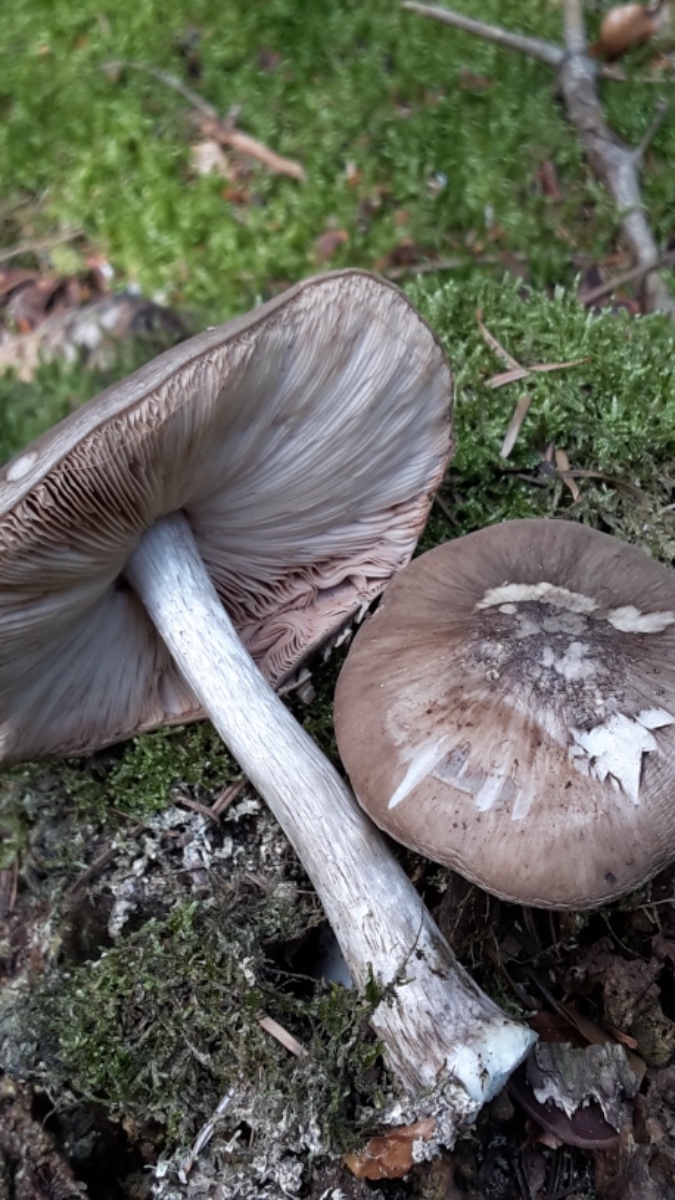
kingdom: Fungi
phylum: Basidiomycota
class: Agaricomycetes
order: Agaricales
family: Pluteaceae
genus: Pluteus
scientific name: Pluteus cervinus
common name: sodfarvet skærmhat
